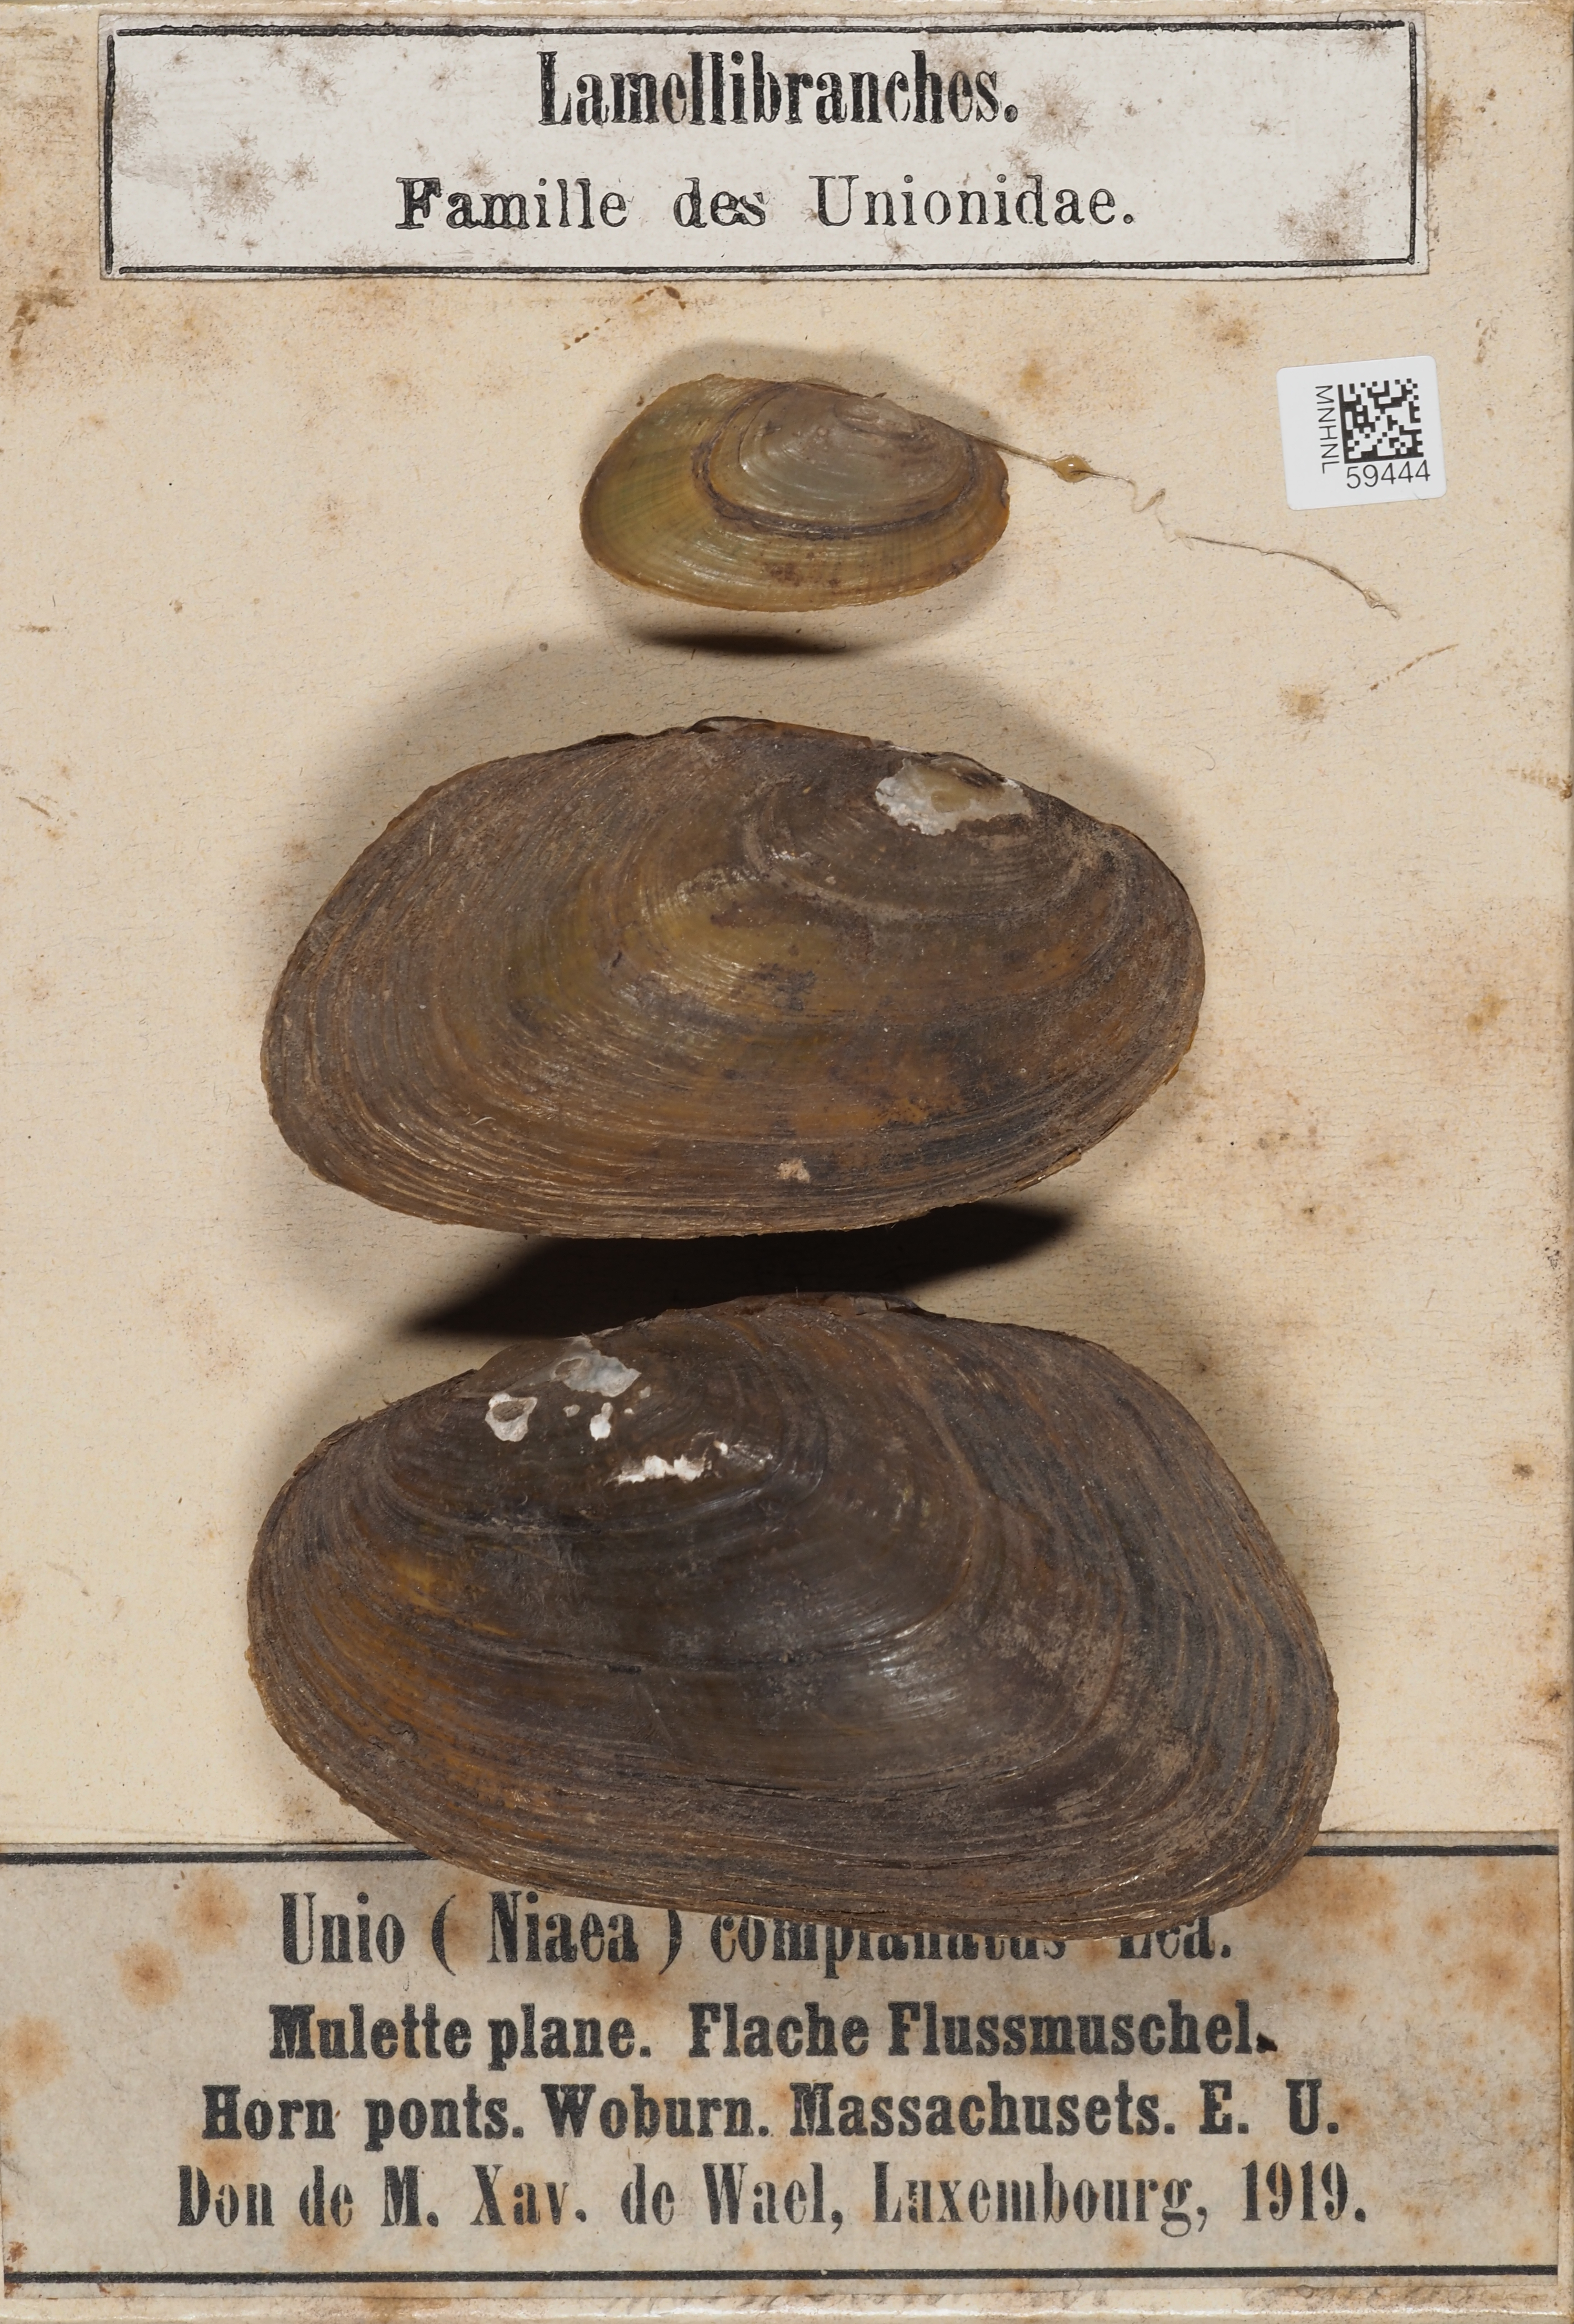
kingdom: Animalia
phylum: Mollusca
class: Bivalvia
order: Unionida
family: Unionidae
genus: Elliptio
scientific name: Elliptio complanata
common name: Eastern elliptio
